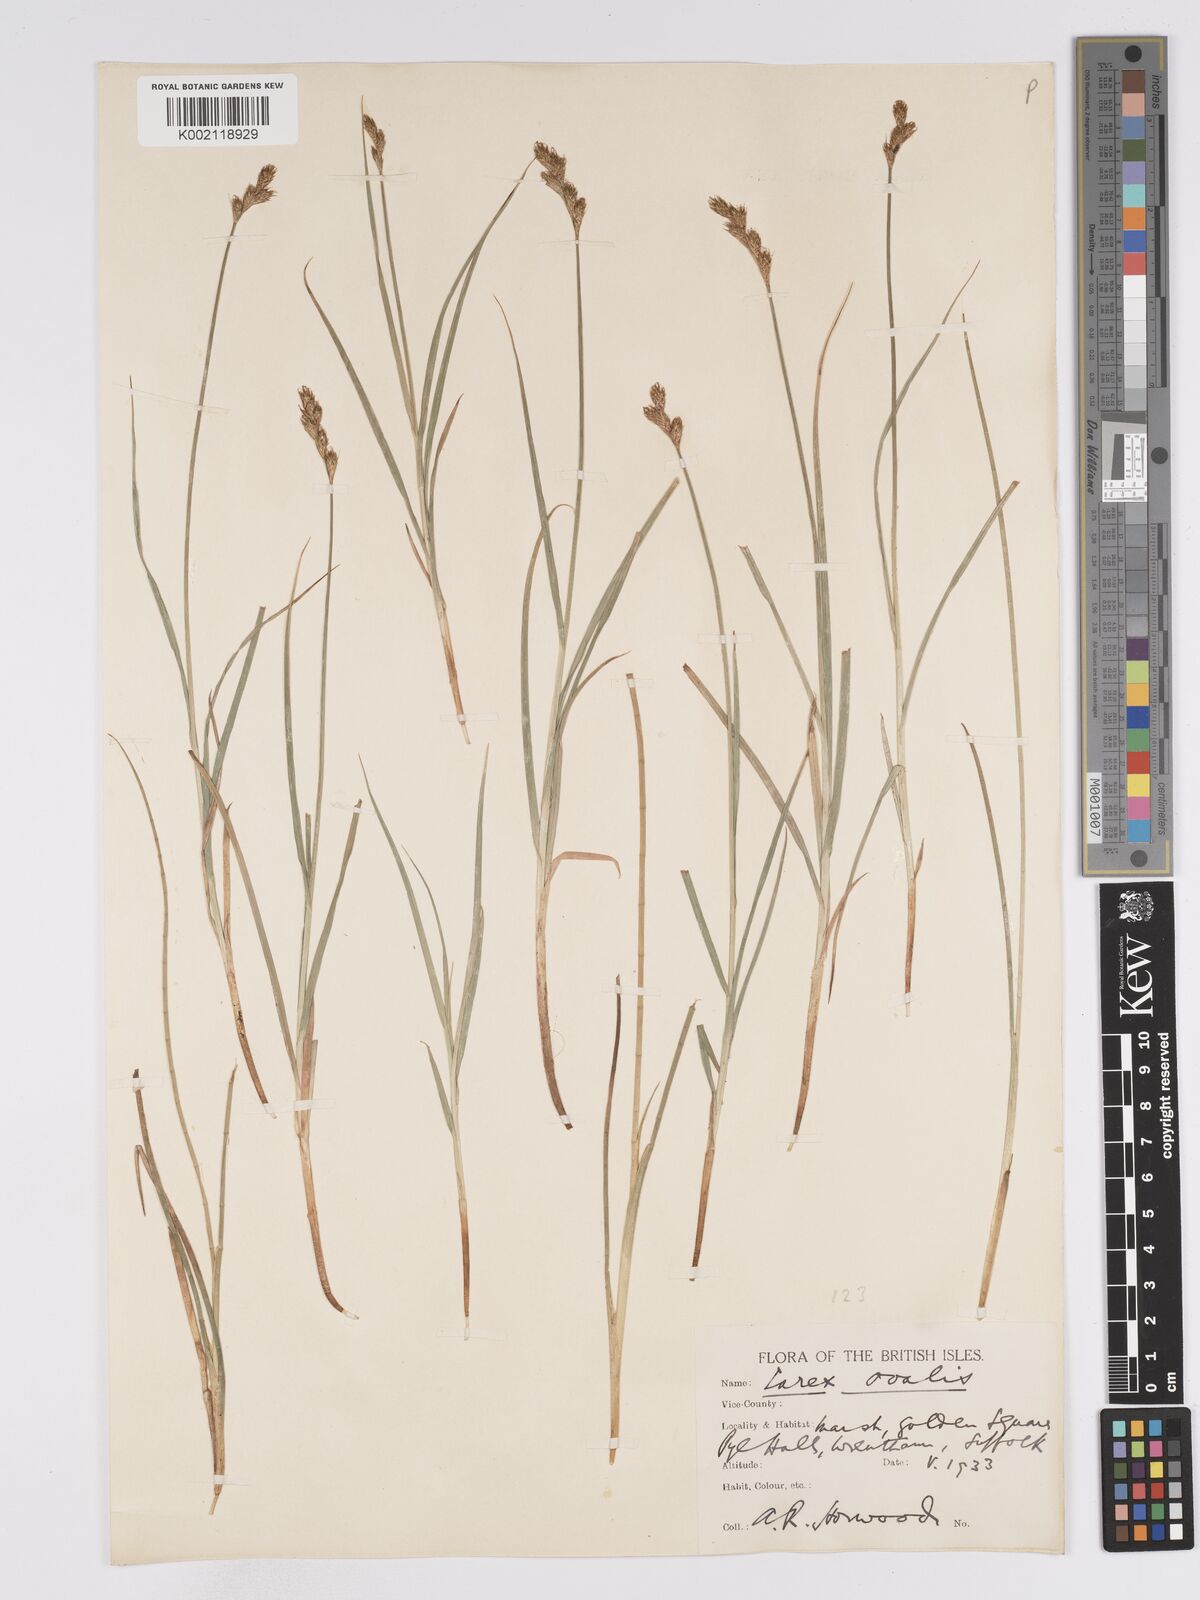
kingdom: Plantae
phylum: Tracheophyta
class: Liliopsida
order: Poales
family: Cyperaceae
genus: Carex
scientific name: Carex leporina
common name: Oval sedge
